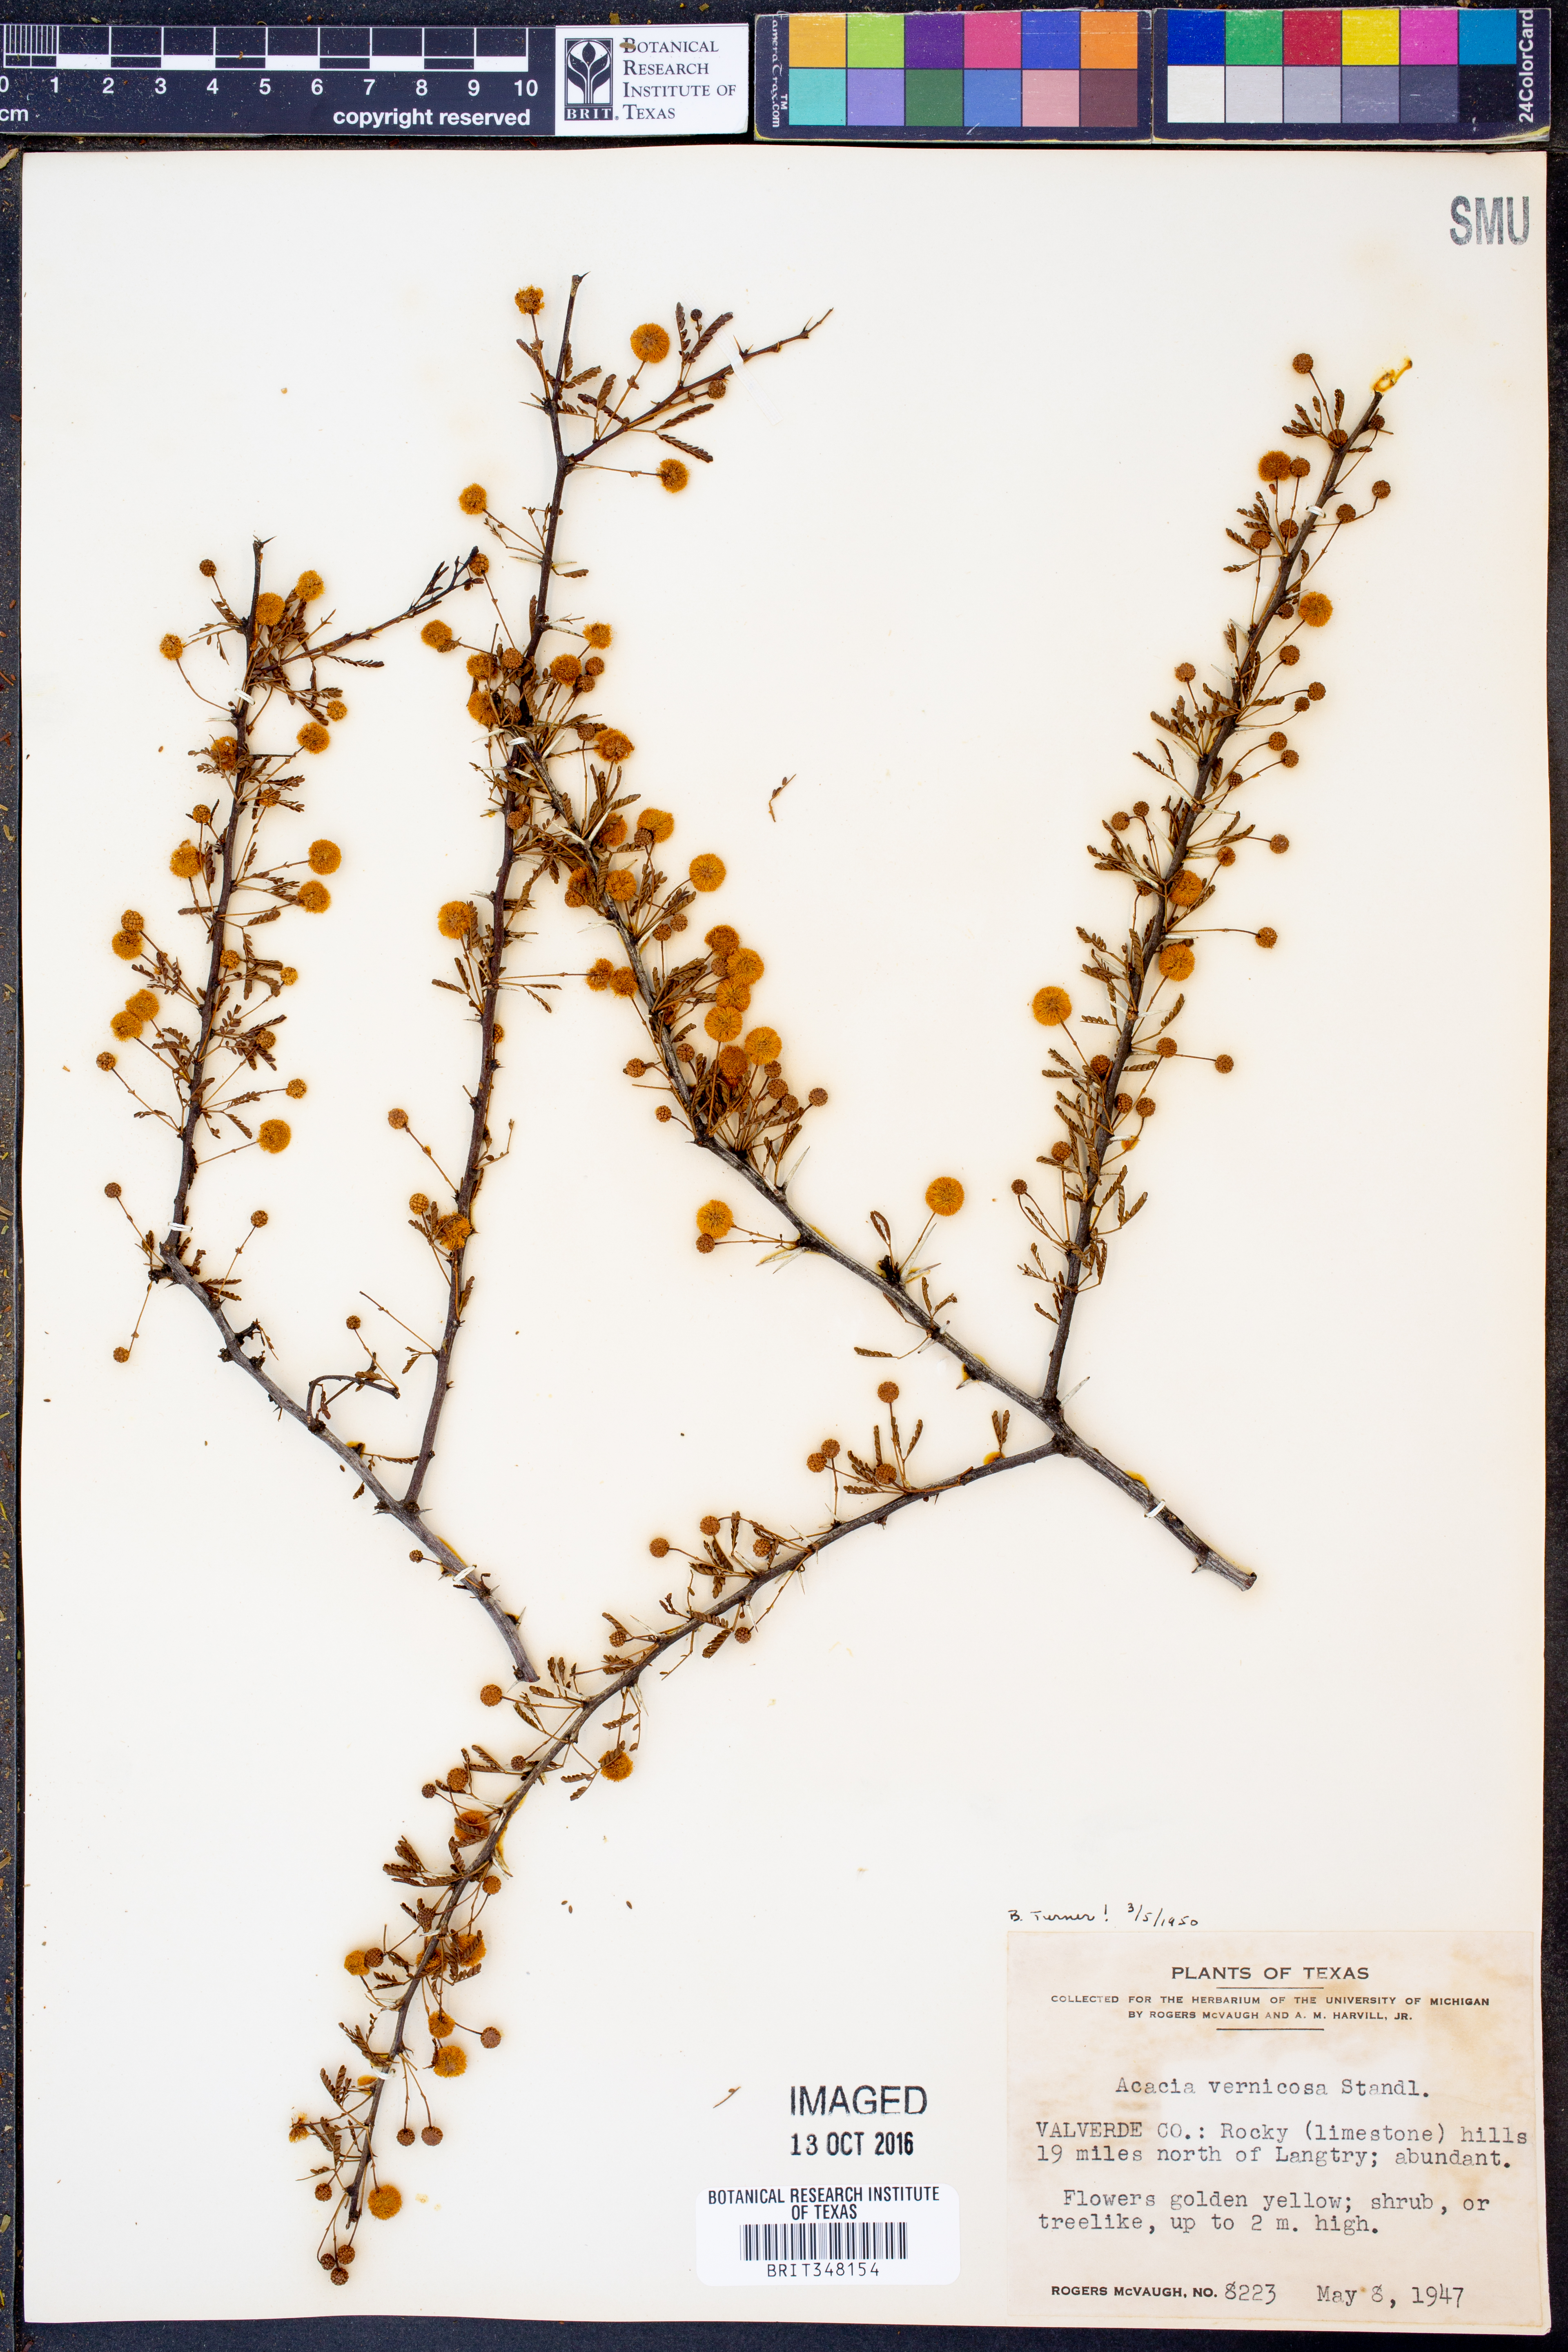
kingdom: Plantae
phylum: Tracheophyta
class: Magnoliopsida
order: Fabales
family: Fabaceae
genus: Vachellia
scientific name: Vachellia vernicosa
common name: Viscid acacia
